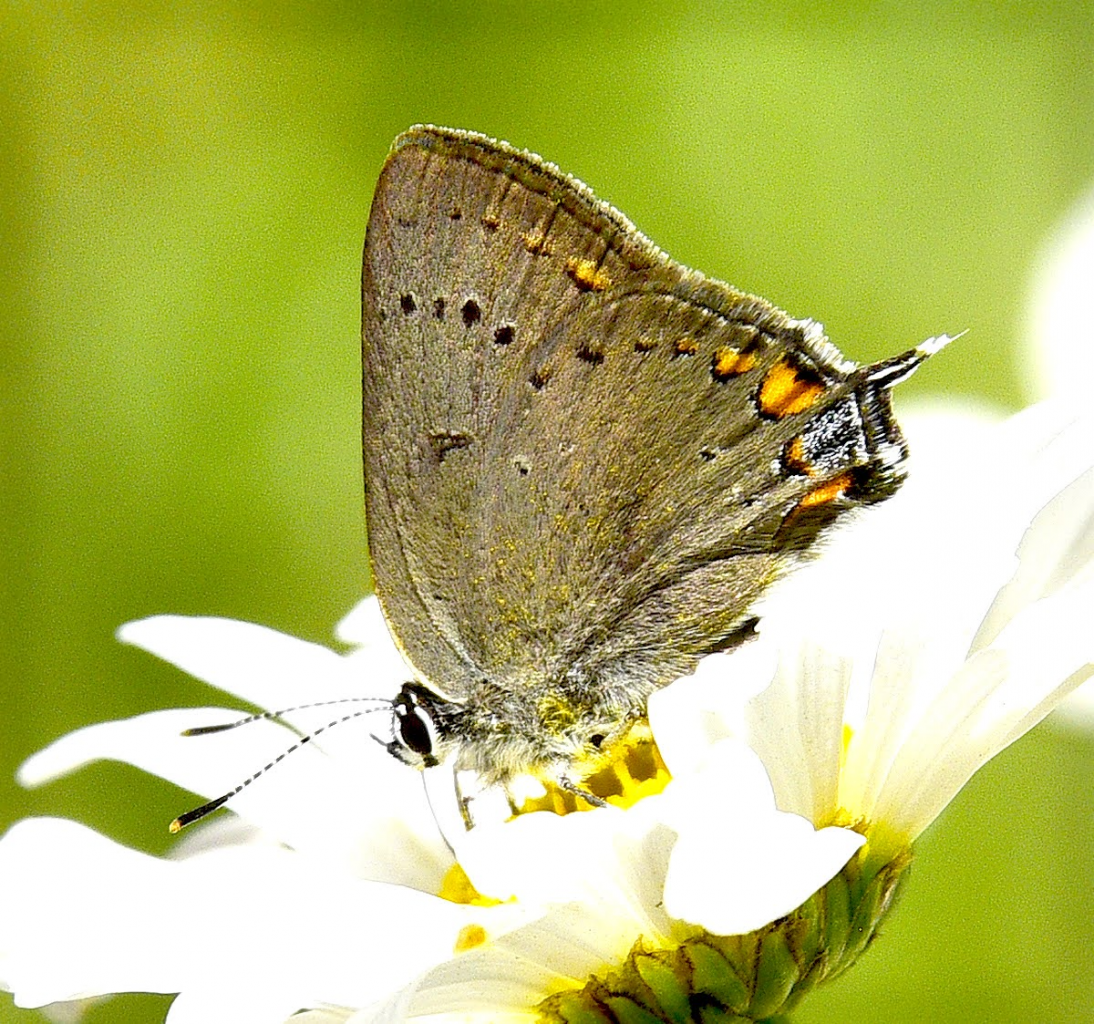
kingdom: Animalia
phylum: Arthropoda
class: Insecta
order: Lepidoptera
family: Lycaenidae
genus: Strymon
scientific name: Strymon acadica
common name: California Hairstreak
